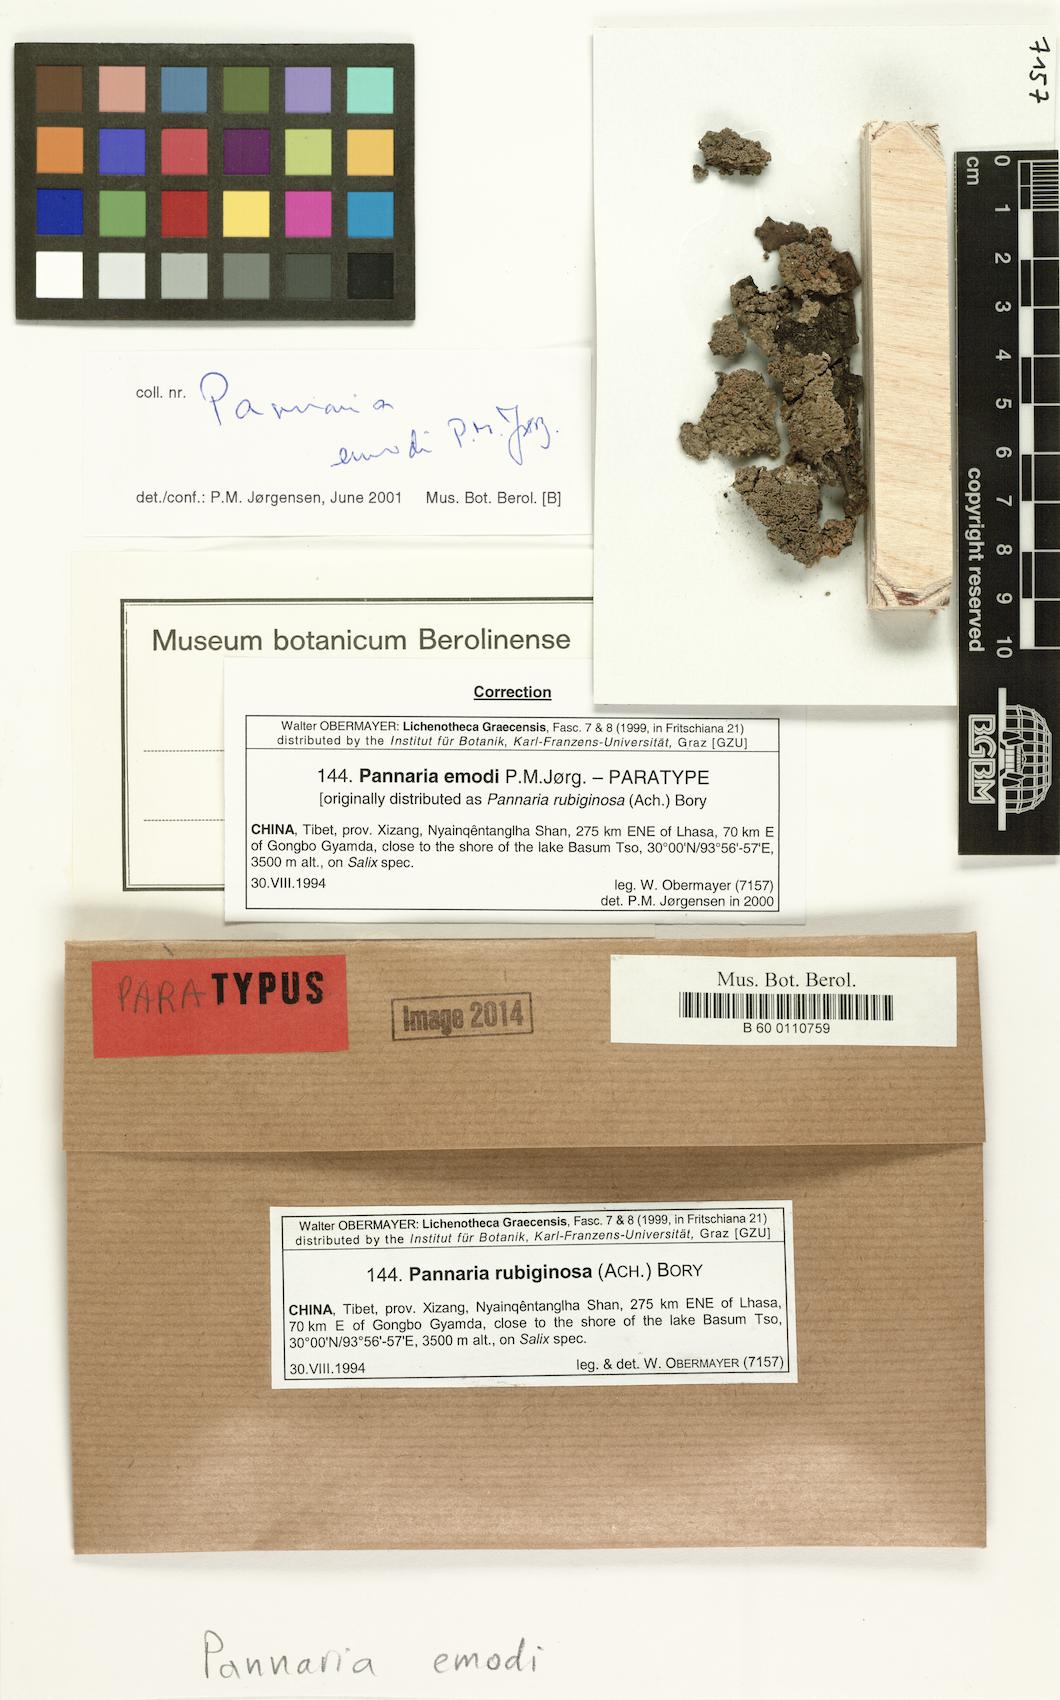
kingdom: Fungi
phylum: Ascomycota
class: Lecanoromycetes
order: Peltigerales
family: Pannariaceae
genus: Pannaria
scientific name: Pannaria emodii
